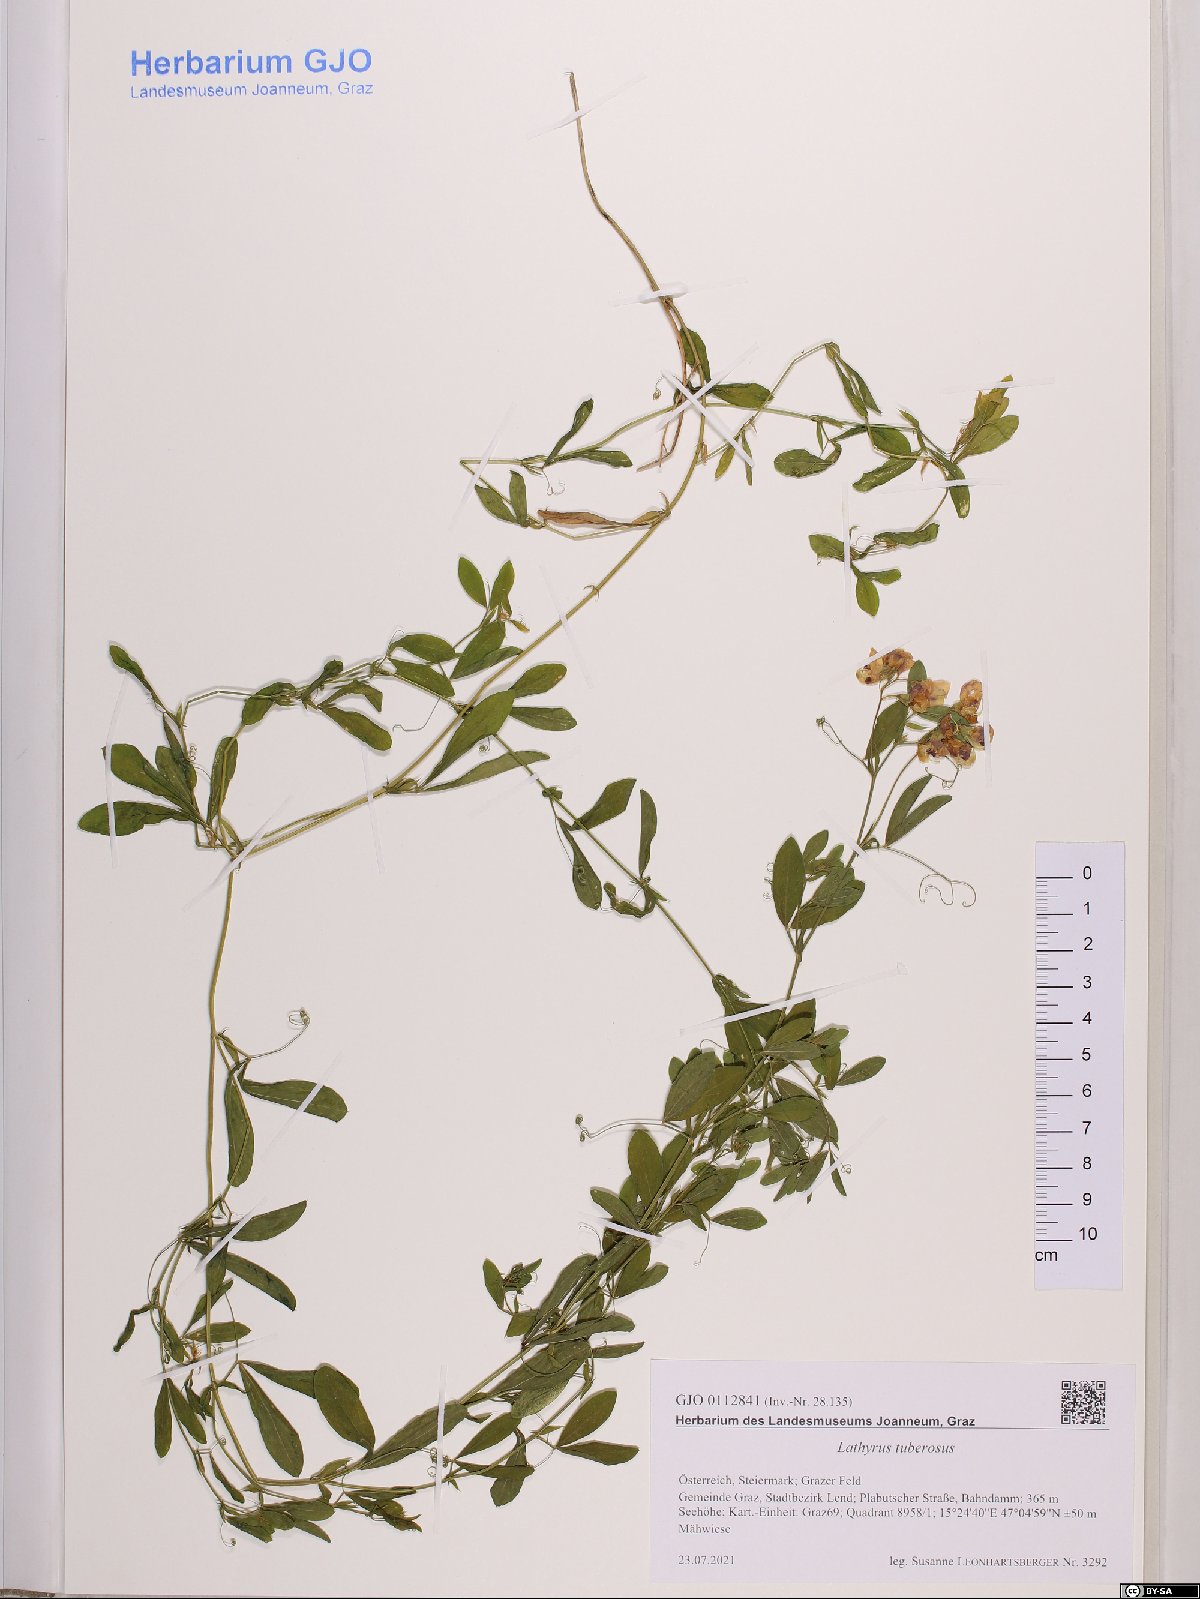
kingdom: Plantae
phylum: Tracheophyta
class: Magnoliopsida
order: Fabales
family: Fabaceae
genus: Lathyrus
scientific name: Lathyrus tuberosus
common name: Tuberous pea
